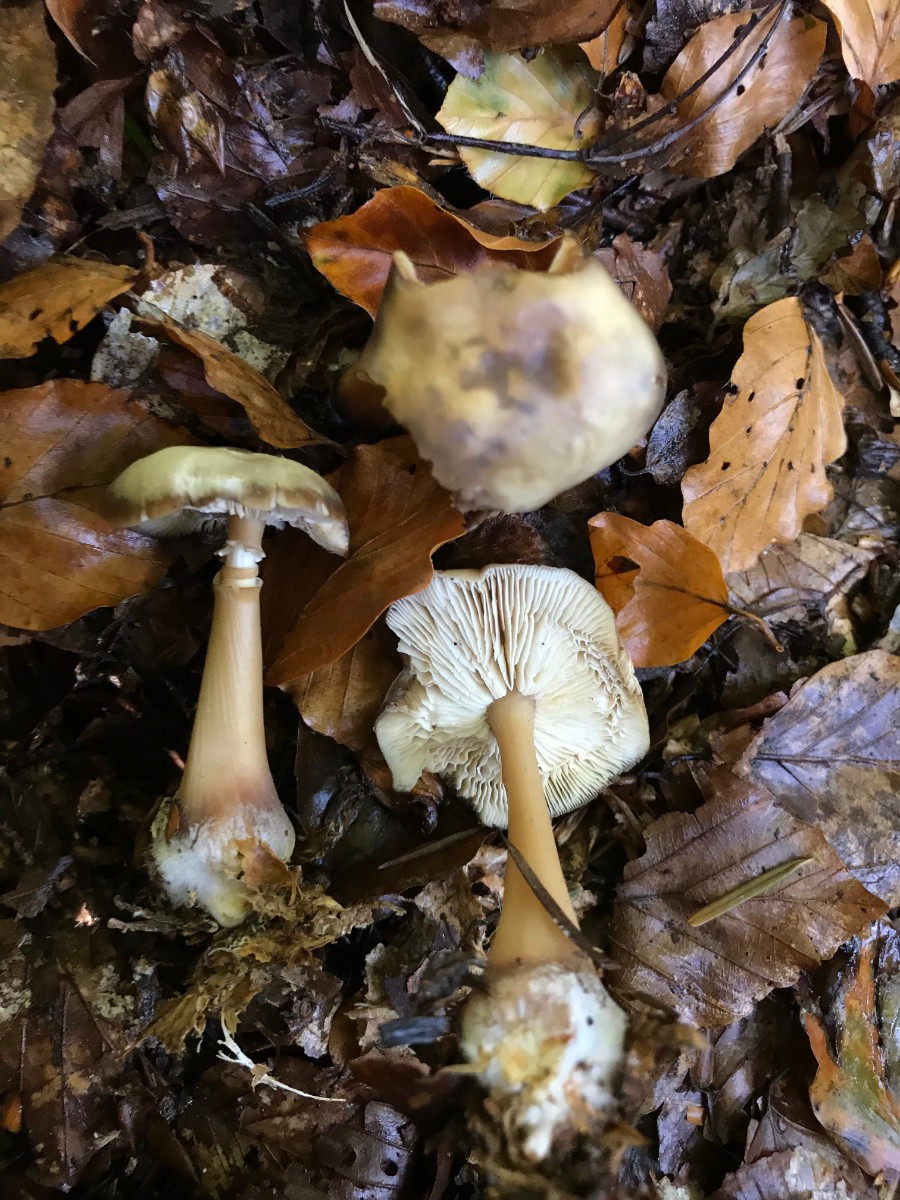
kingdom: Fungi
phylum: Basidiomycota
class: Agaricomycetes
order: Agaricales
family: Omphalotaceae
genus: Rhodocollybia
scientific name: Rhodocollybia asema
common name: horngrå fladhat
